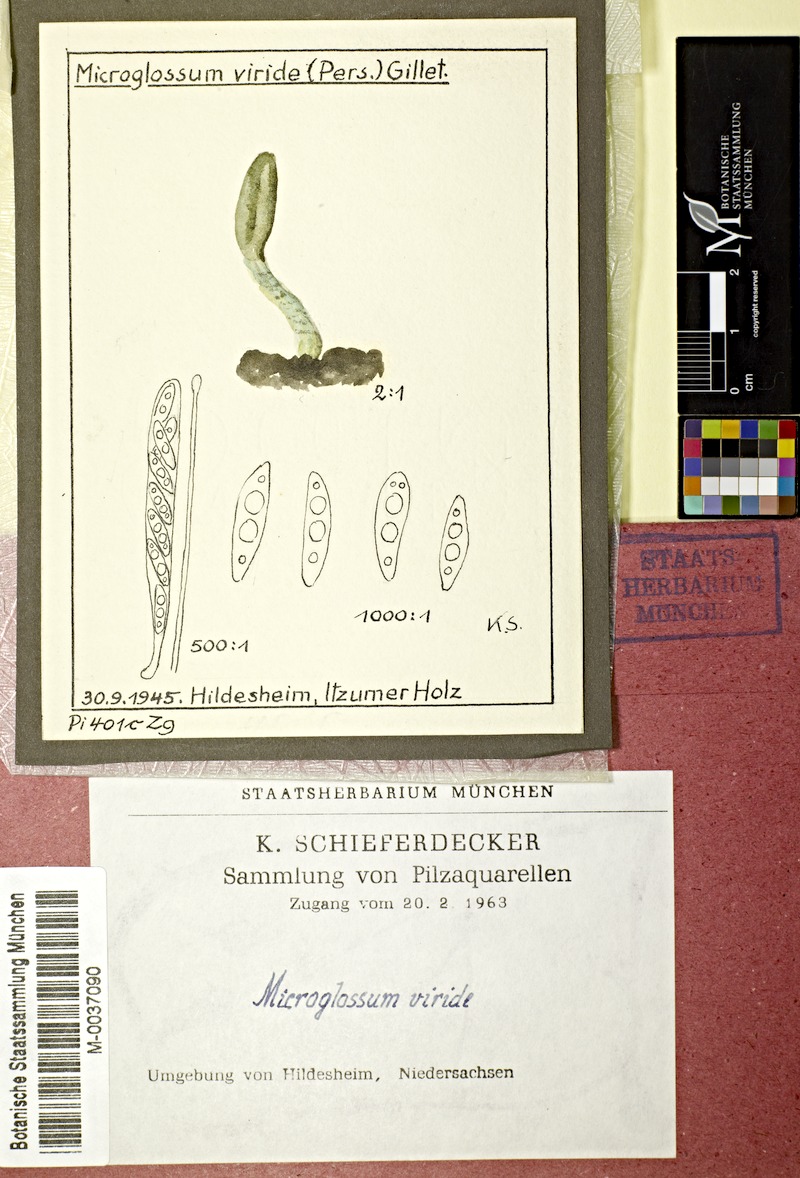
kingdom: Fungi
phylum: Ascomycota
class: Leotiomycetes
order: Leotiales
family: Leotiaceae
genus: Microglossum
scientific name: Microglossum viride
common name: Green earthtongue
